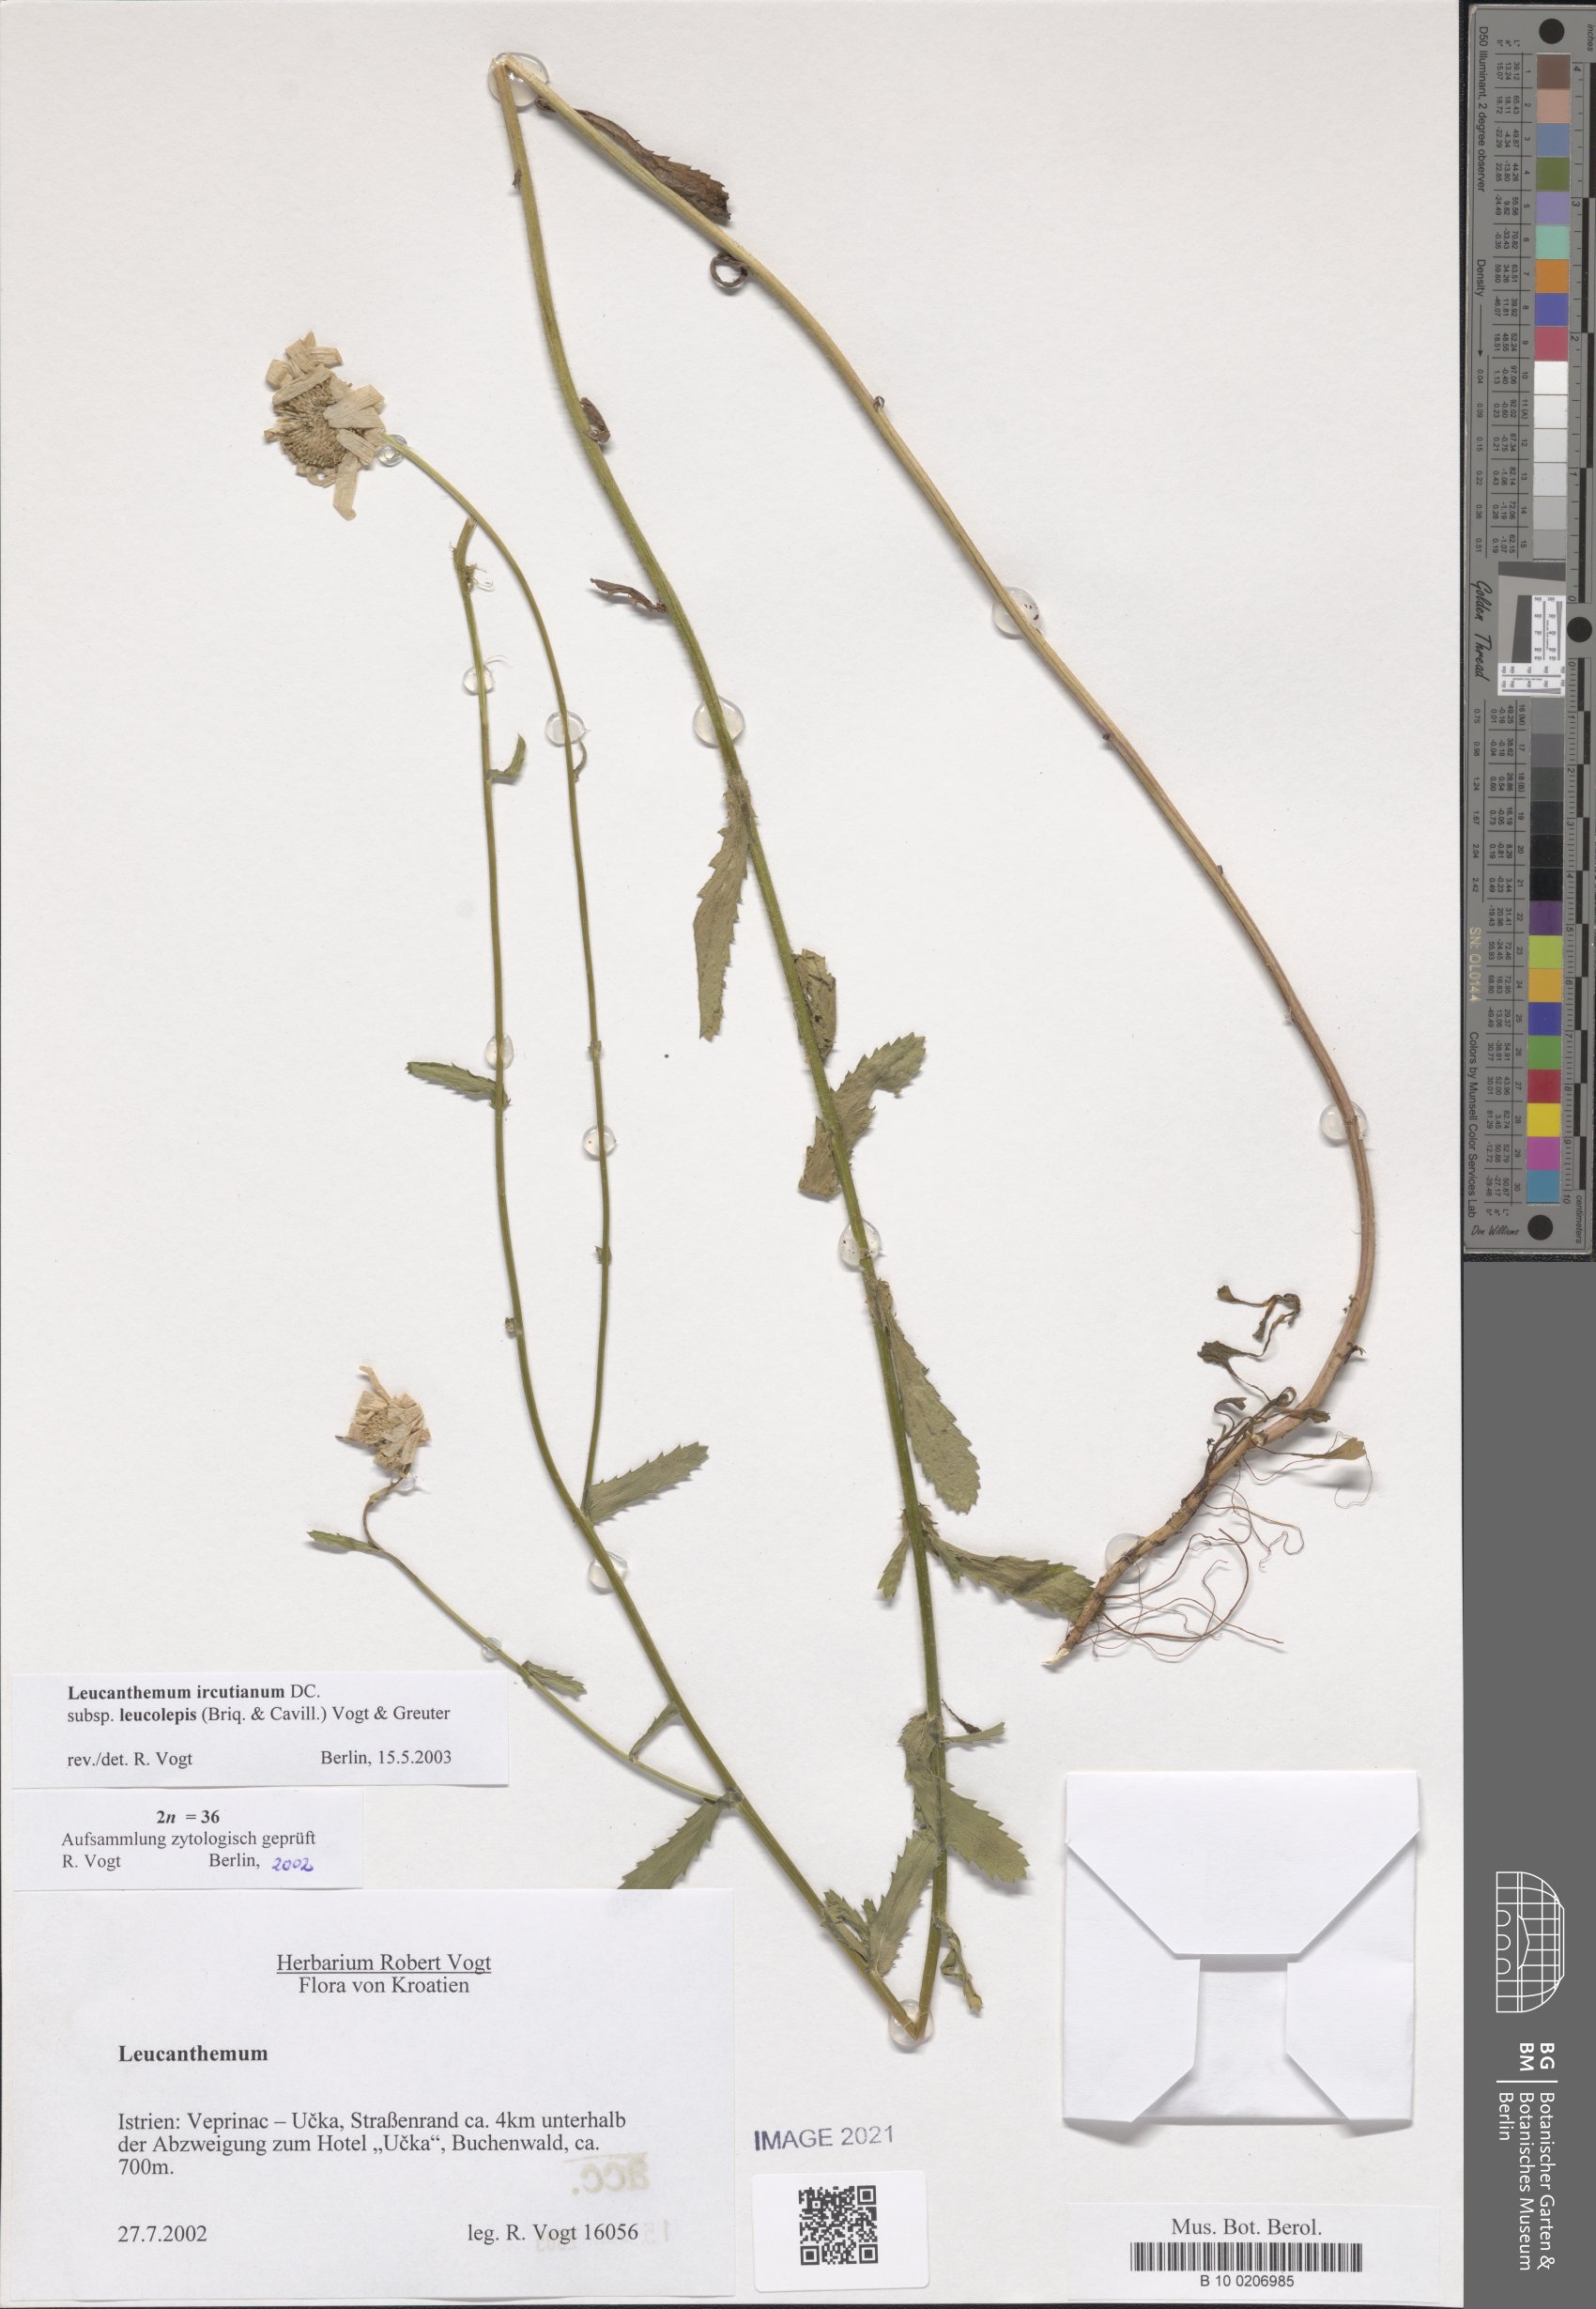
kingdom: Plantae
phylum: Tracheophyta
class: Magnoliopsida
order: Asterales
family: Asteraceae
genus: Leucanthemum
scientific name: Leucanthemum ircutianum
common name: Daisy
